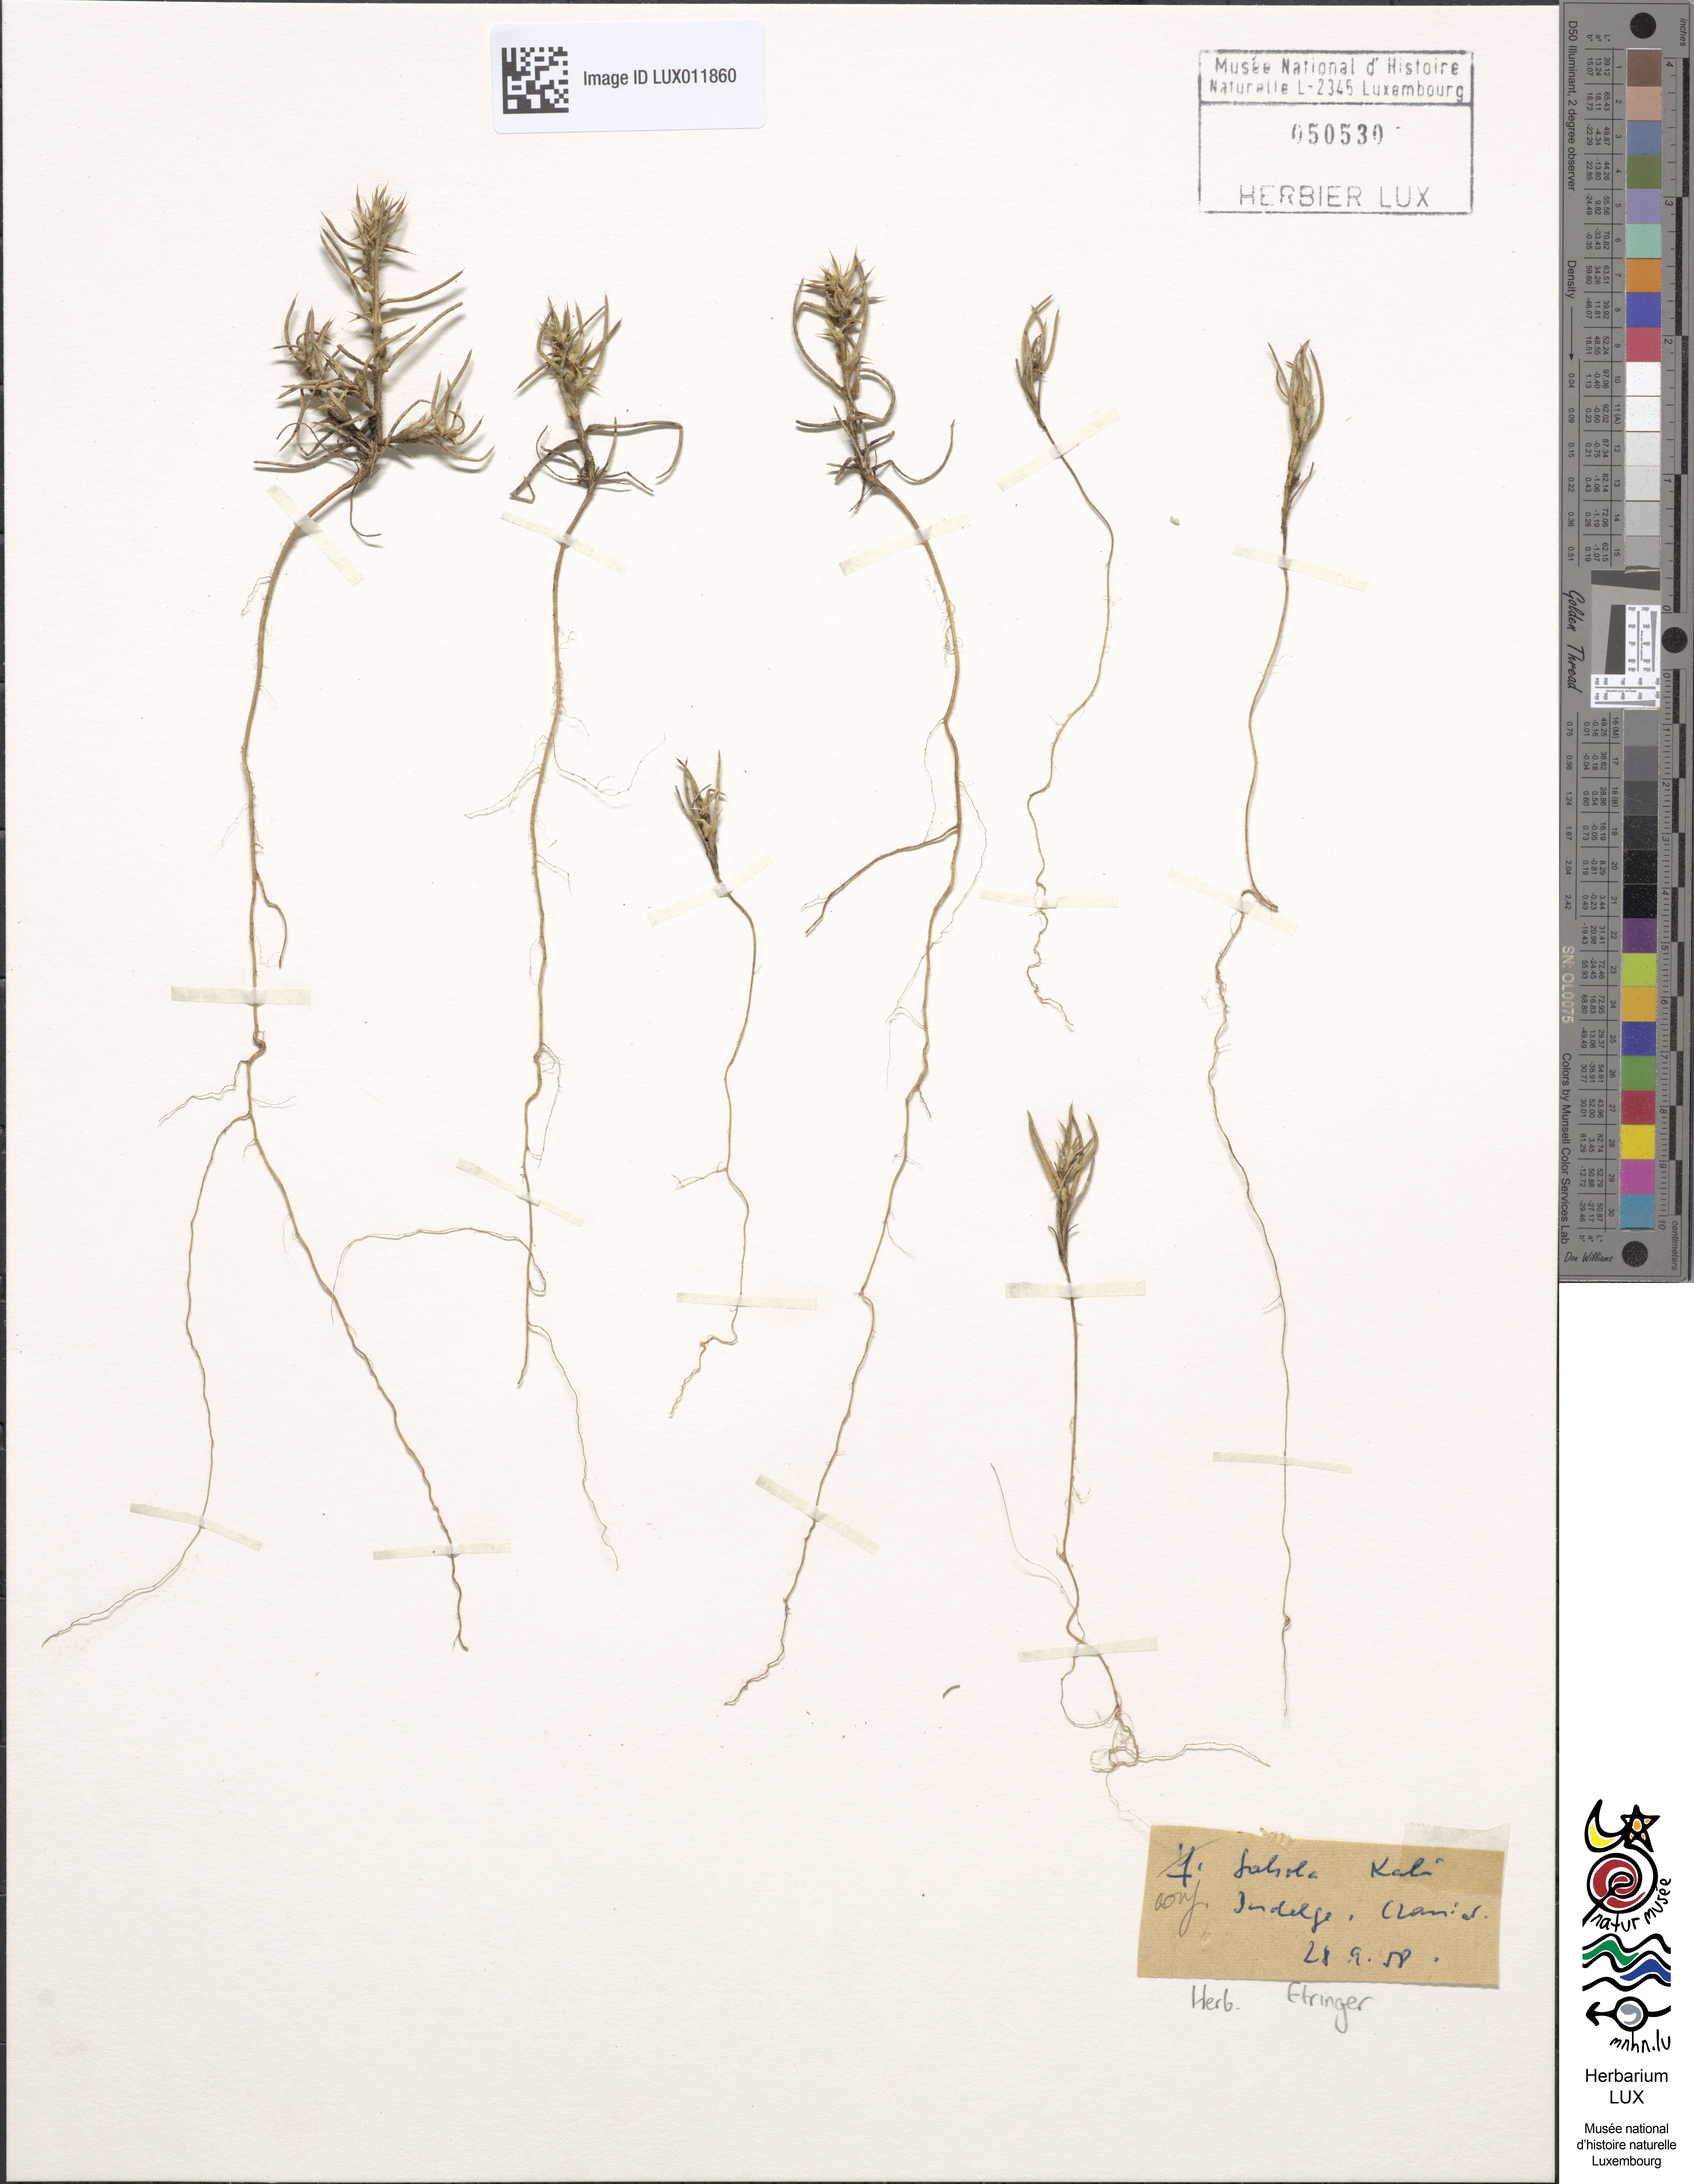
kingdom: Plantae
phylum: Tracheophyta
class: Magnoliopsida
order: Caryophyllales
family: Amaranthaceae
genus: Salsola
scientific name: Salsola kali
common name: Saltwort
